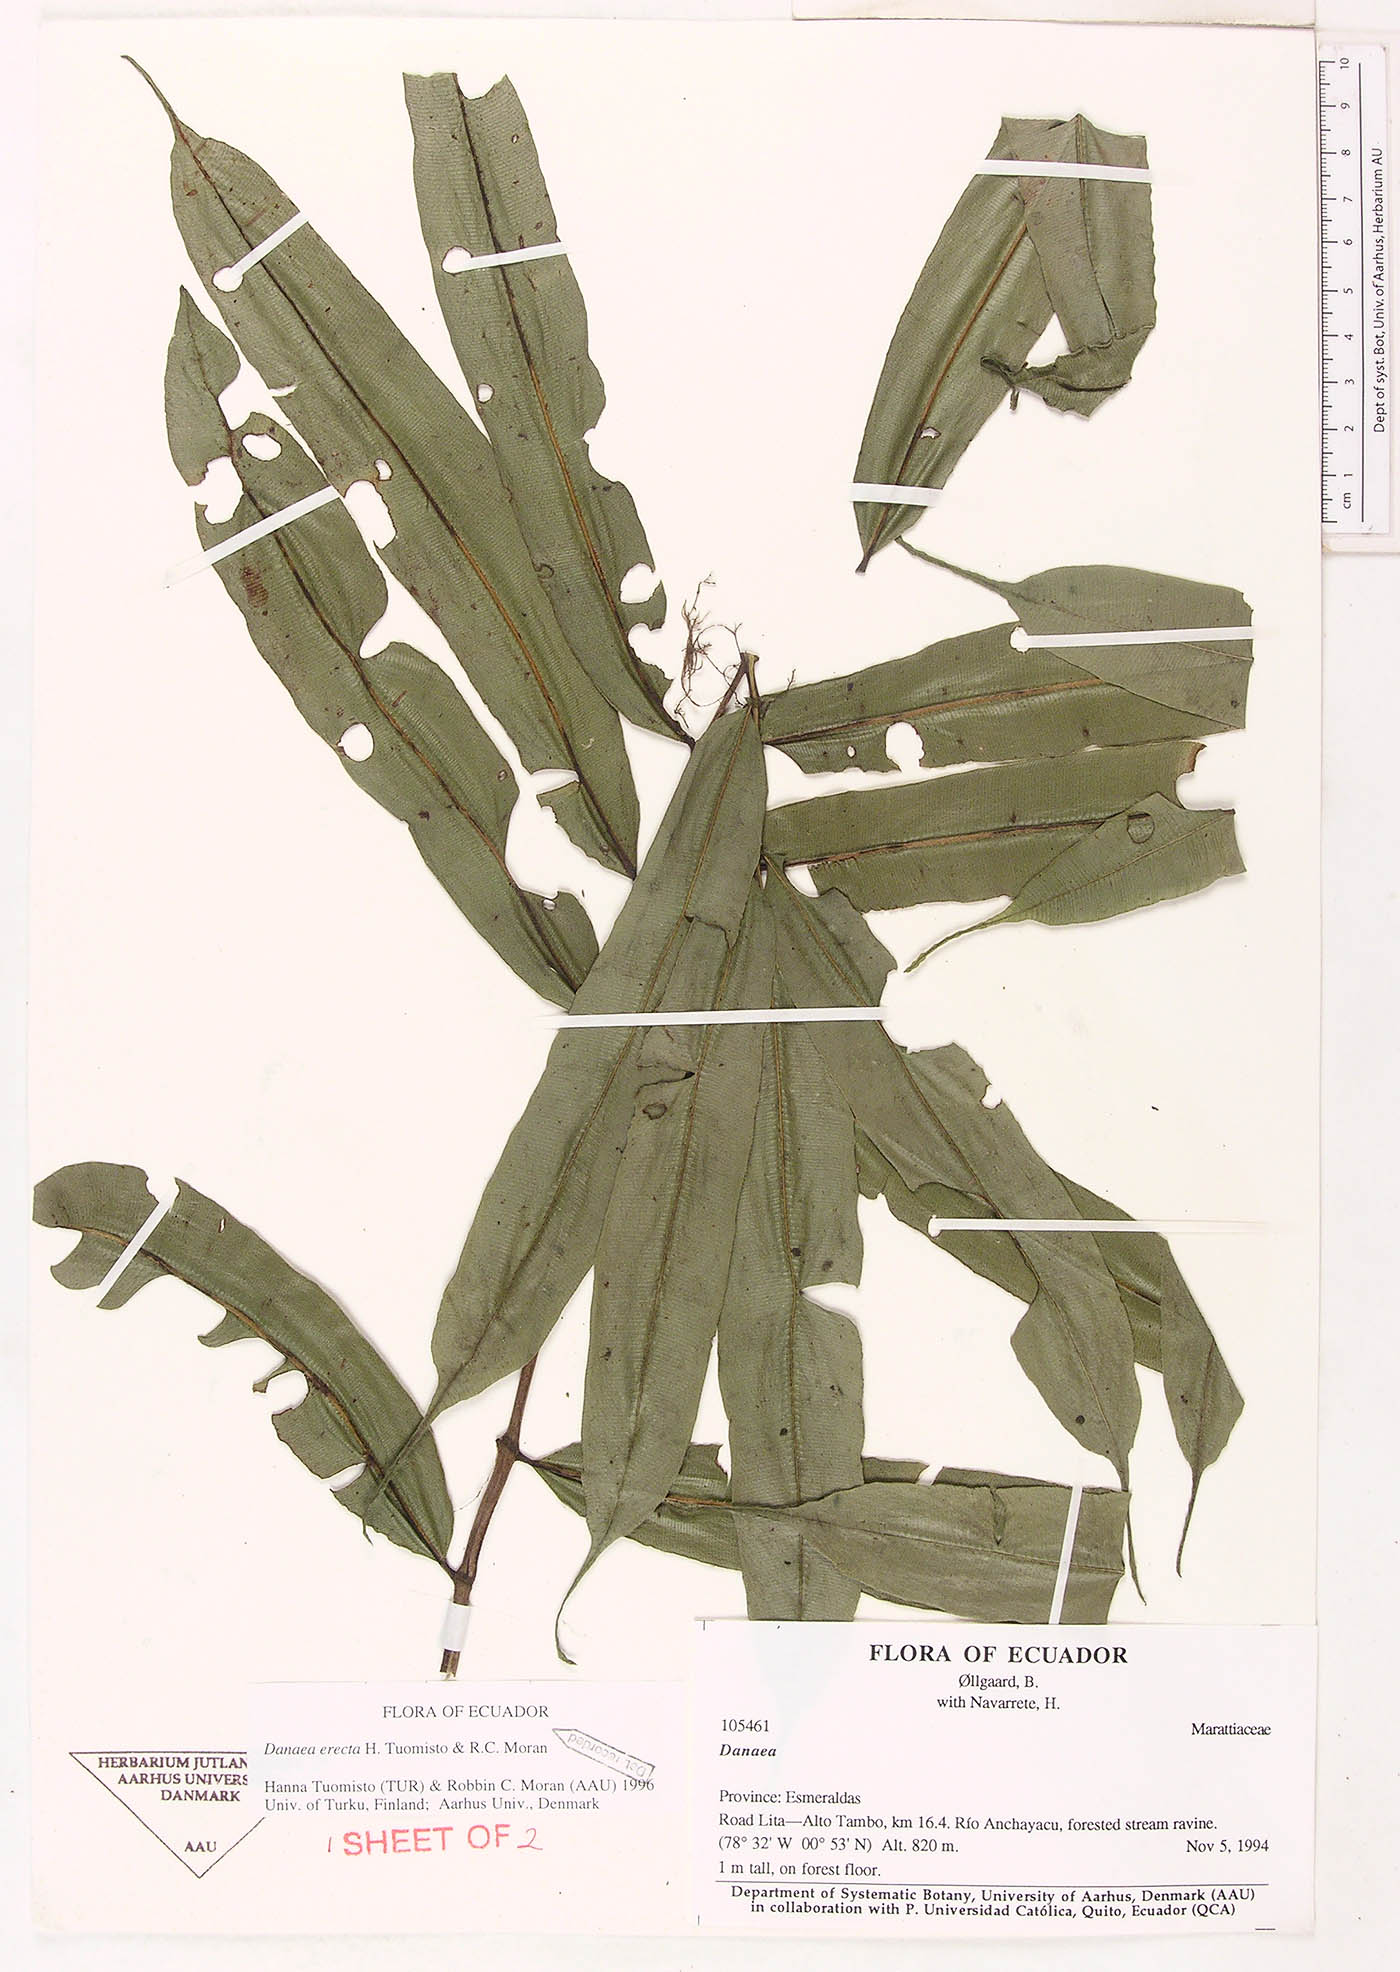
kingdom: Plantae
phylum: Tracheophyta
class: Polypodiopsida
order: Marattiales
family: Marattiaceae
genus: Danaea
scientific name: Danaea
